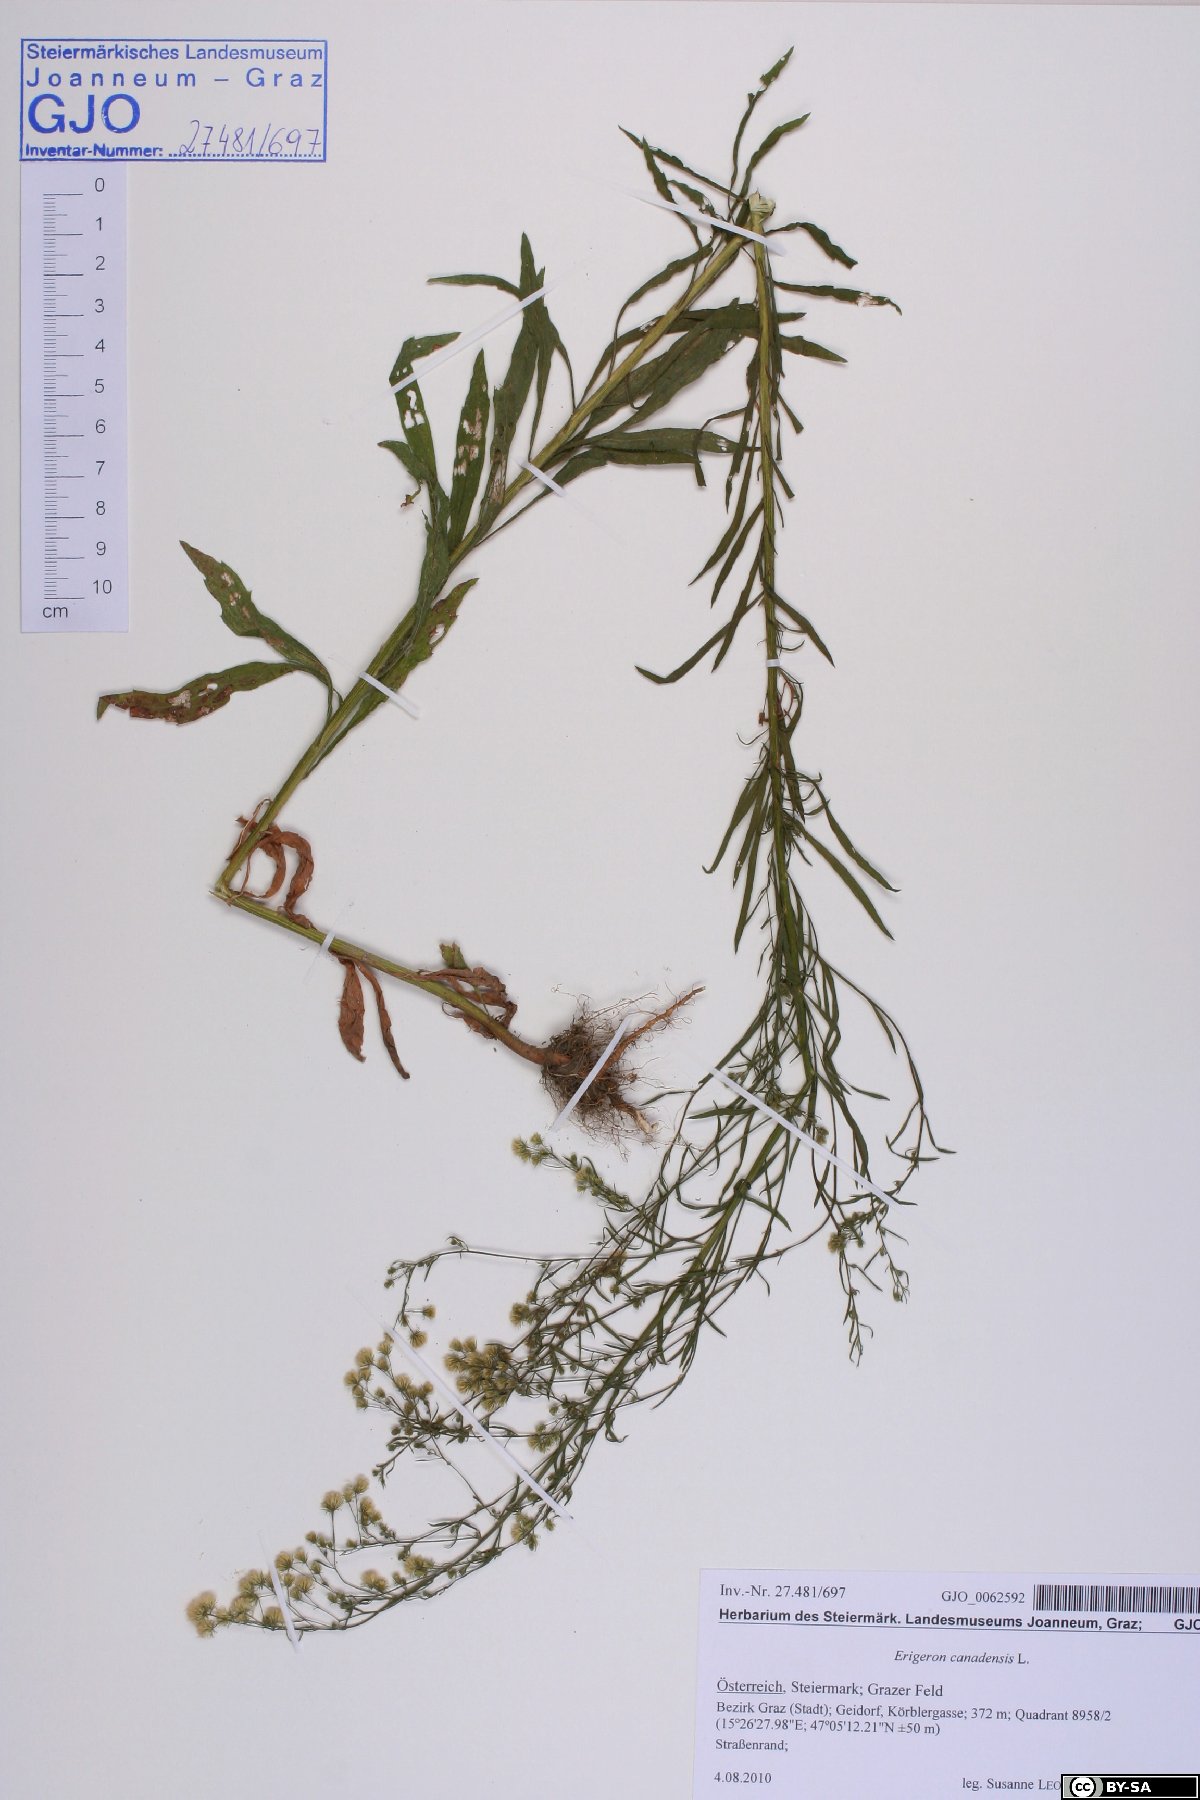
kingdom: Plantae
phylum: Tracheophyta
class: Magnoliopsida
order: Asterales
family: Asteraceae
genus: Erigeron
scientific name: Erigeron canadensis
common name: Canadian fleabane
